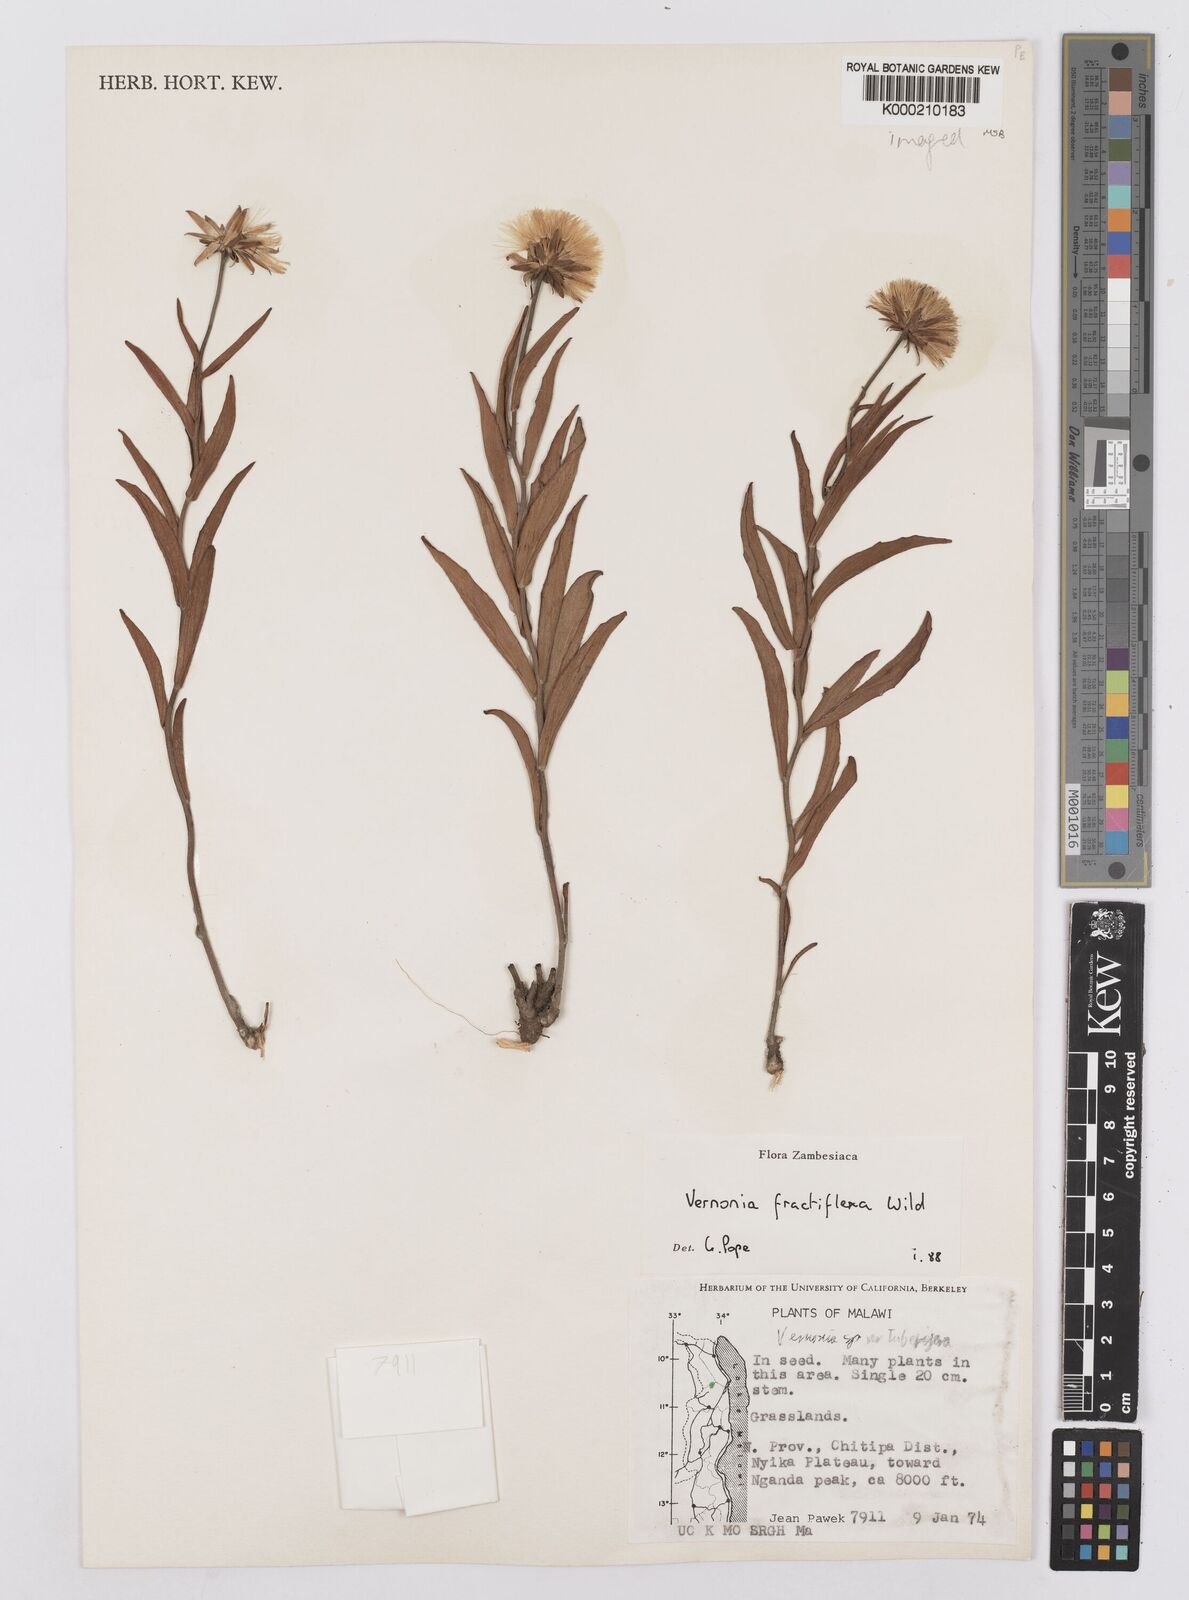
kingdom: Plantae
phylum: Tracheophyta
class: Magnoliopsida
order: Asterales
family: Asteraceae
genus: Vernonia
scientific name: Vernonia fractiflexa
